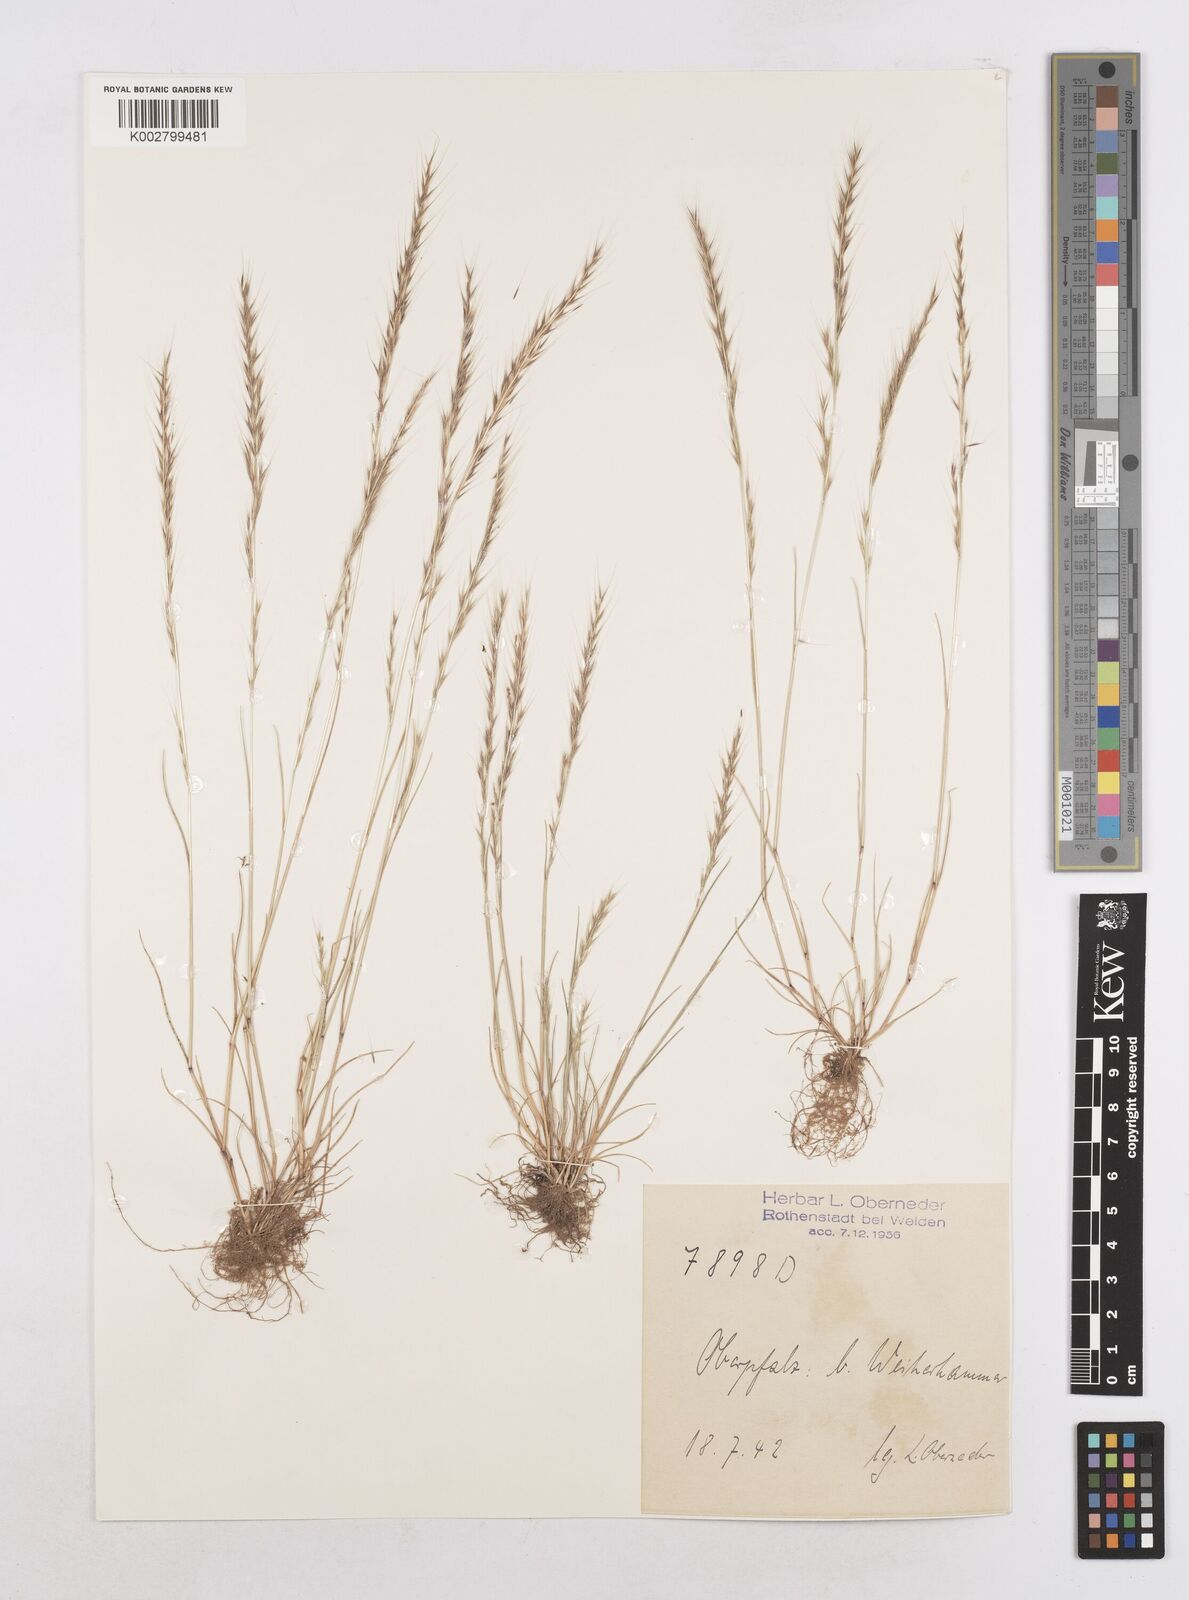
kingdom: Plantae
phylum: Tracheophyta
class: Liliopsida
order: Poales
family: Poaceae
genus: Festuca
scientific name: Festuca myuros
